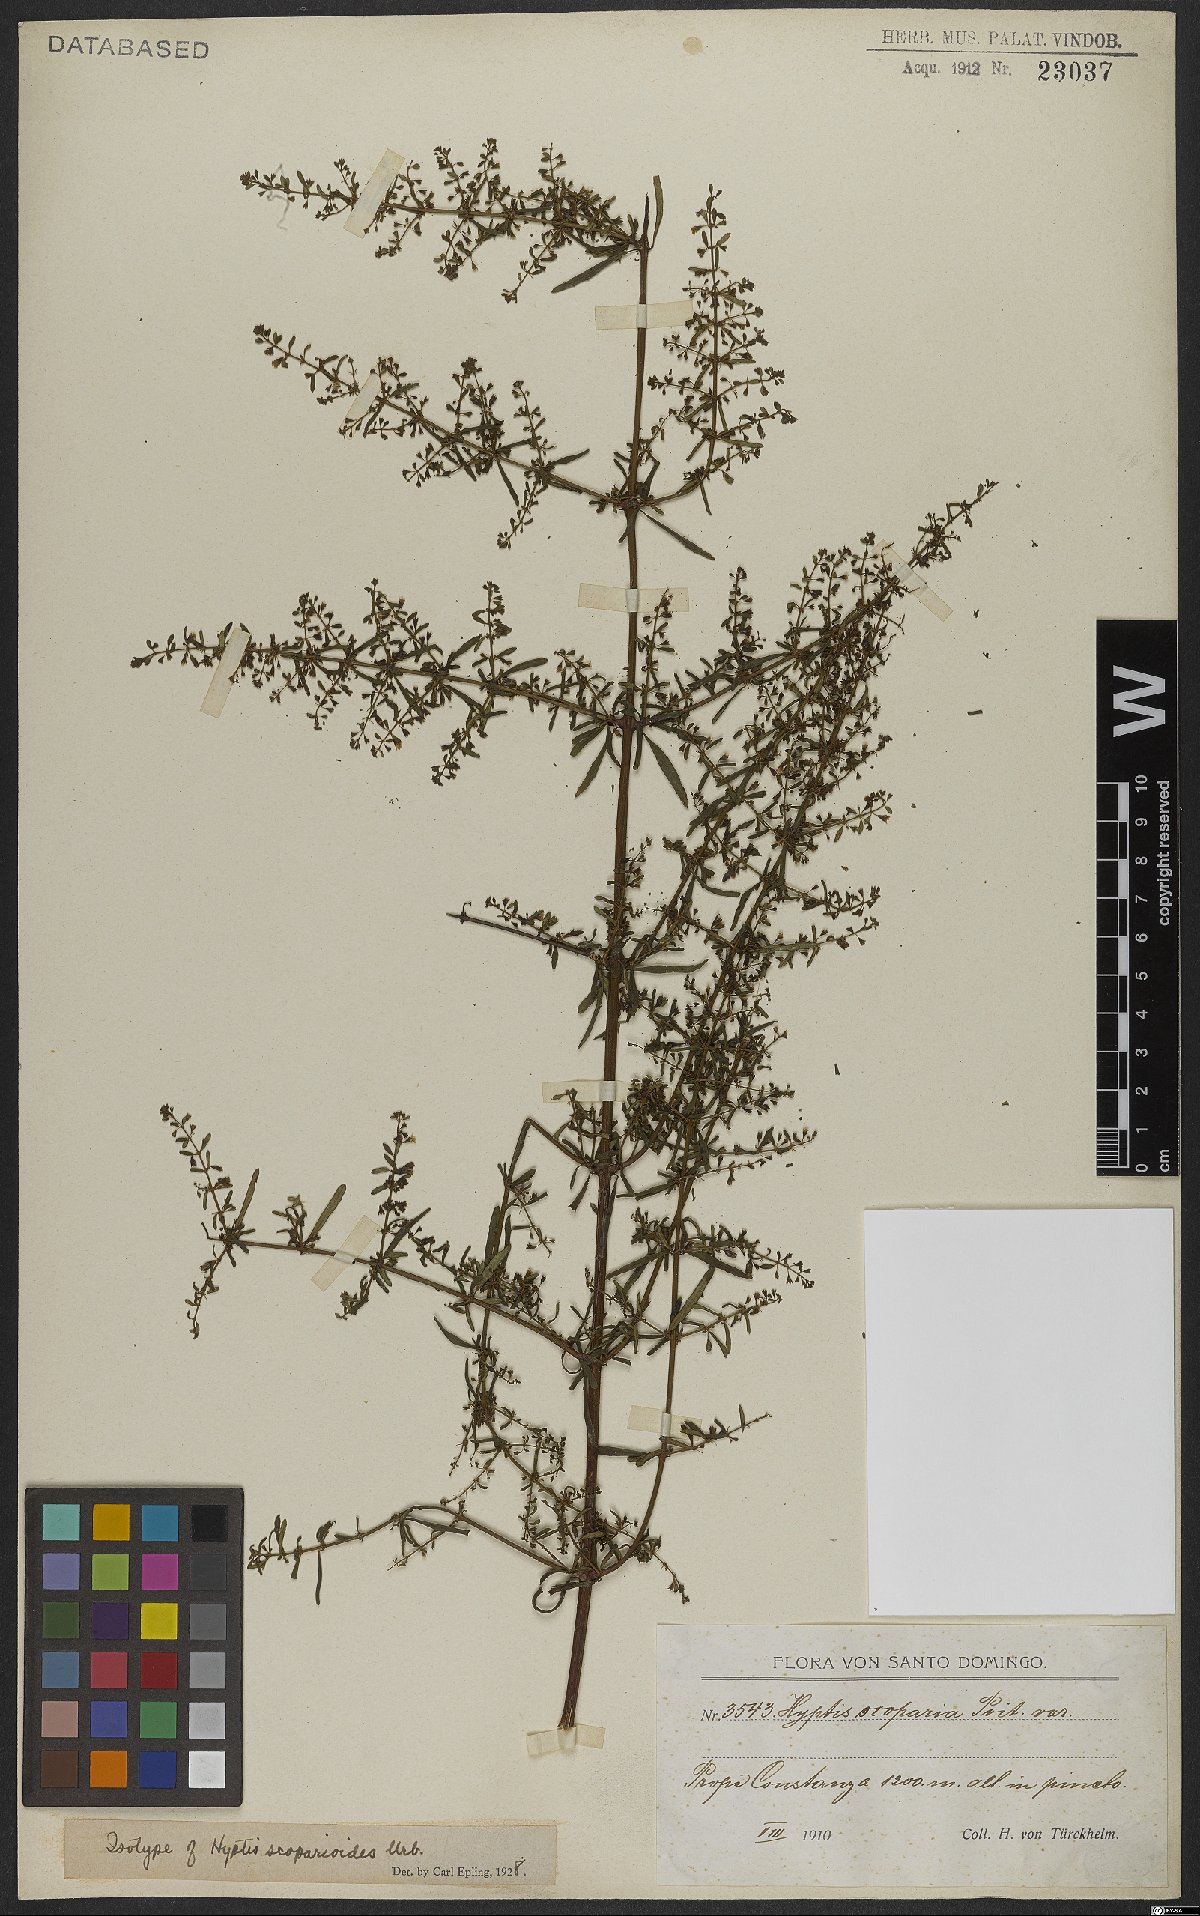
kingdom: Plantae
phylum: Tracheophyta
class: Magnoliopsida
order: Lamiales
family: Lamiaceae
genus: Condea
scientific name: Condea scoparioides
